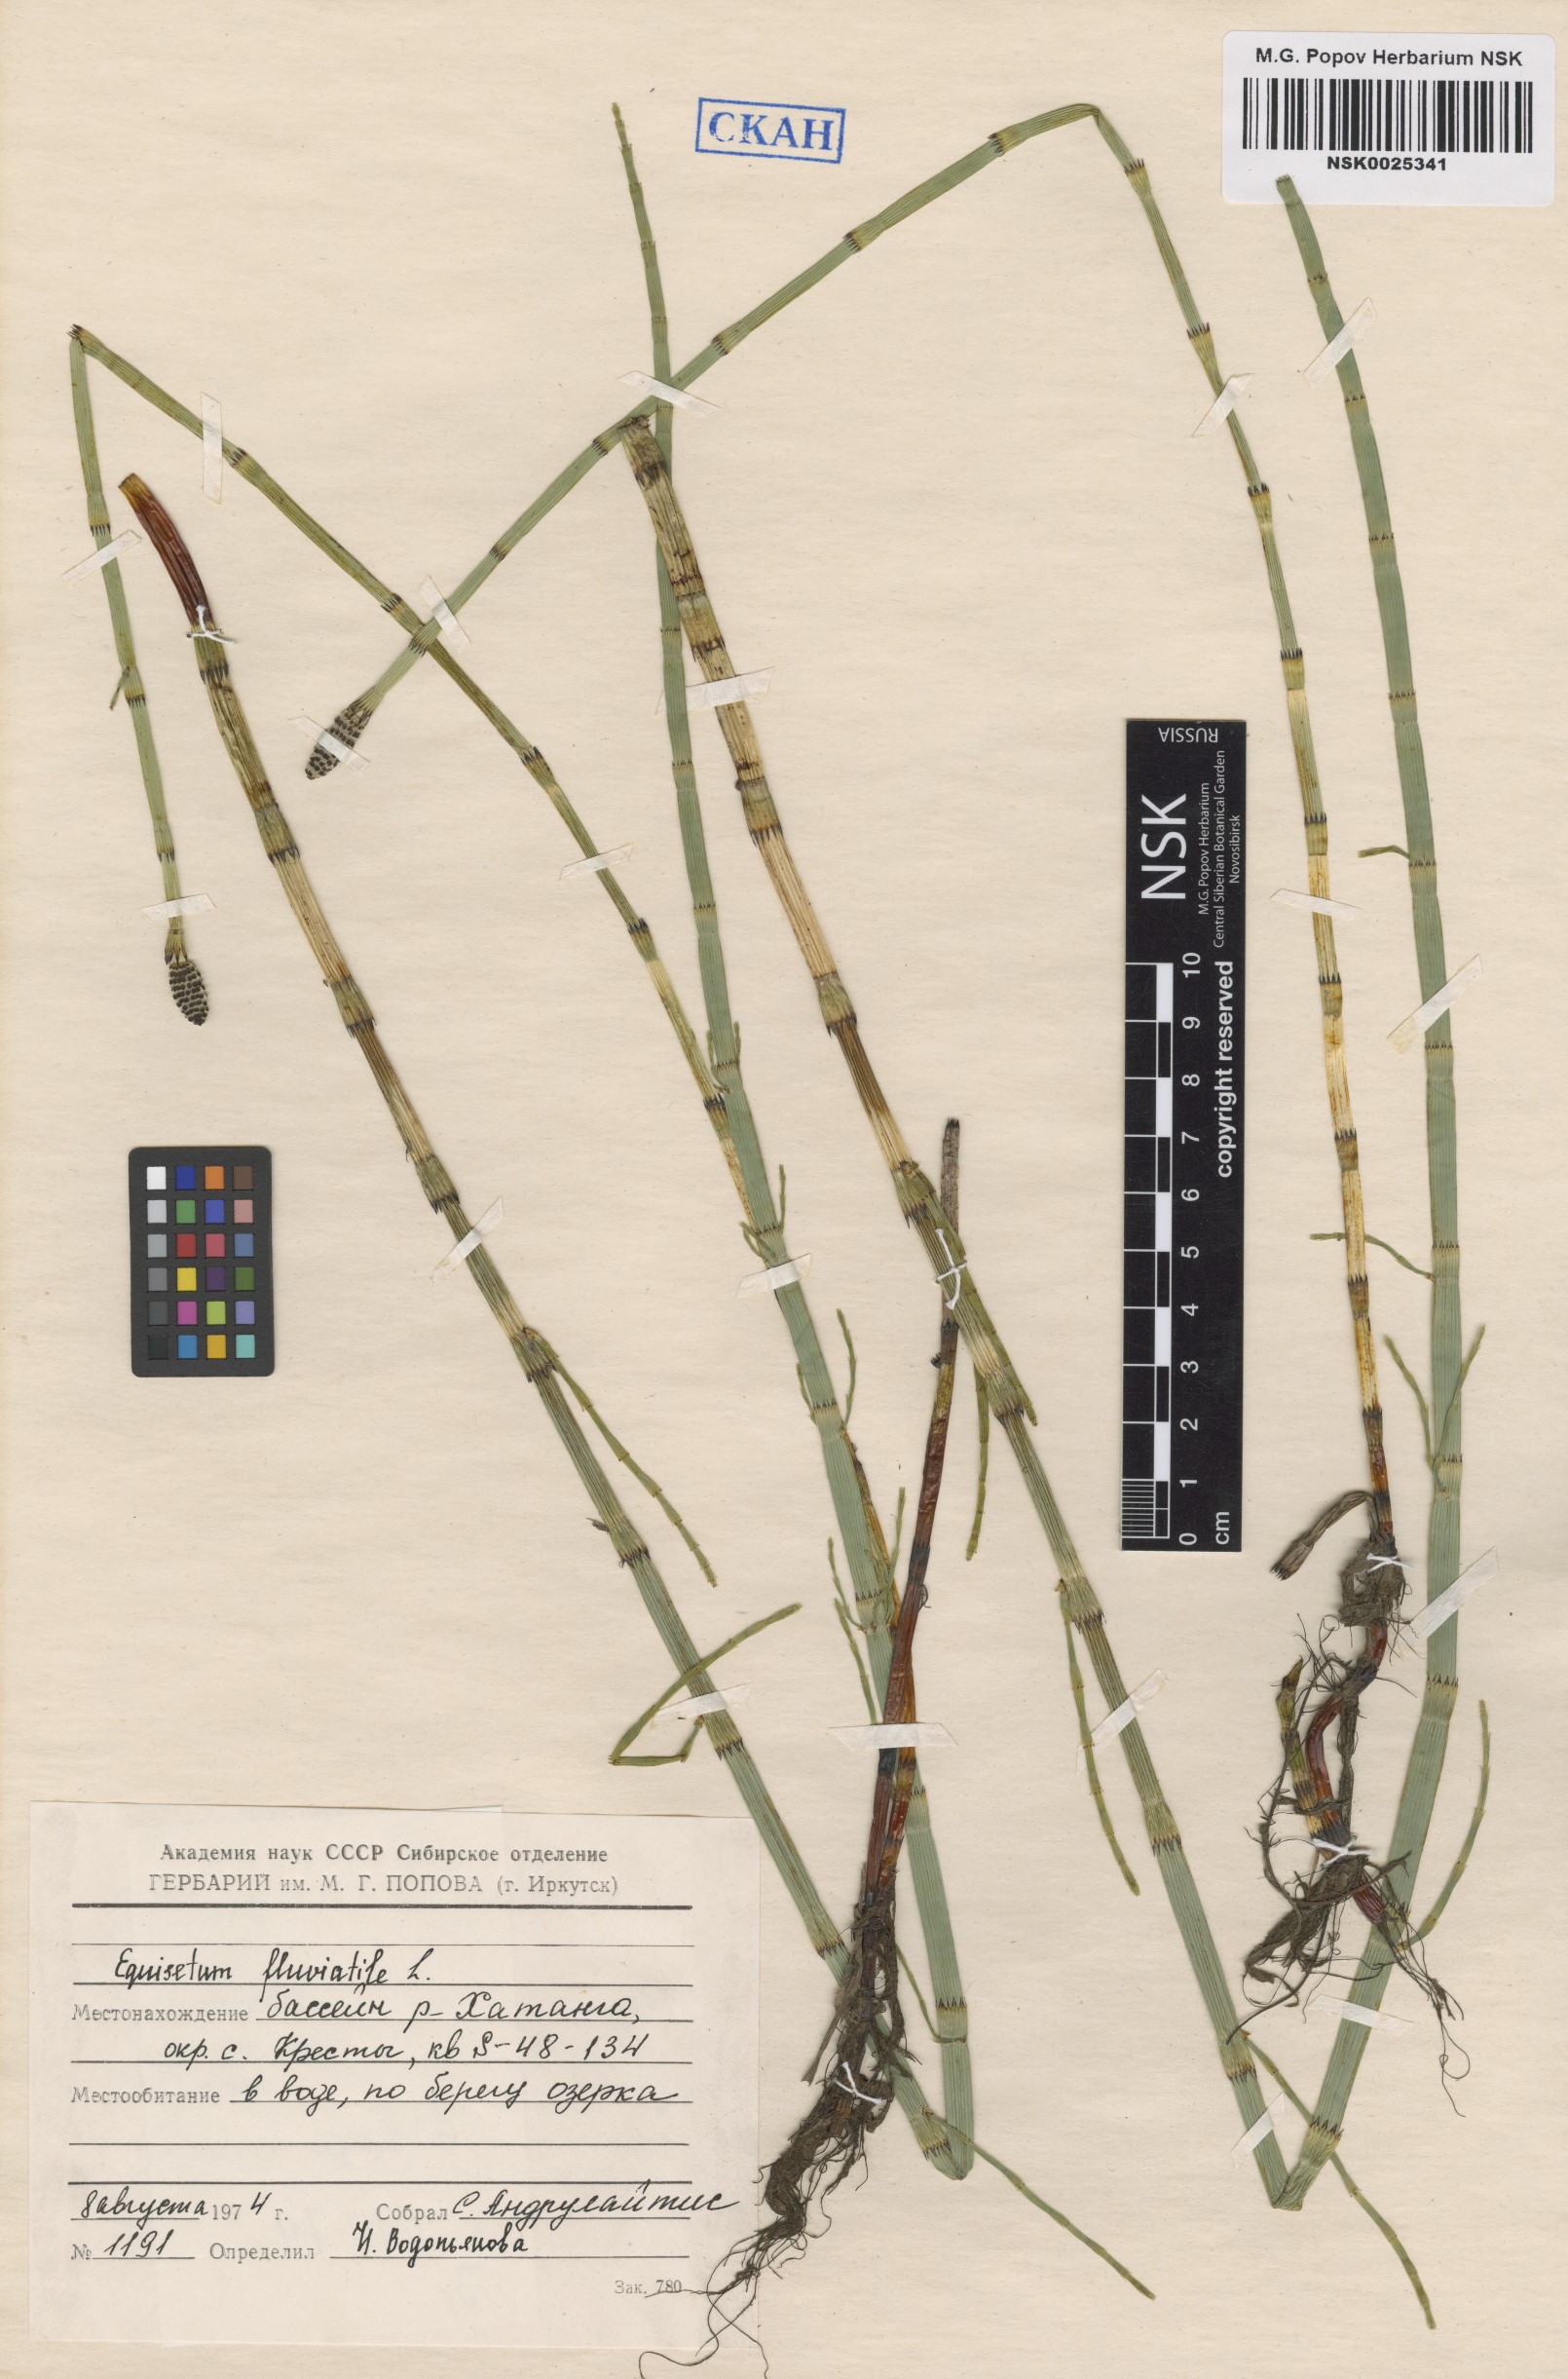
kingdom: Plantae
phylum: Tracheophyta
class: Polypodiopsida
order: Equisetales
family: Equisetaceae
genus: Equisetum
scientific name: Equisetum fluviatile
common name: Water horsetail
